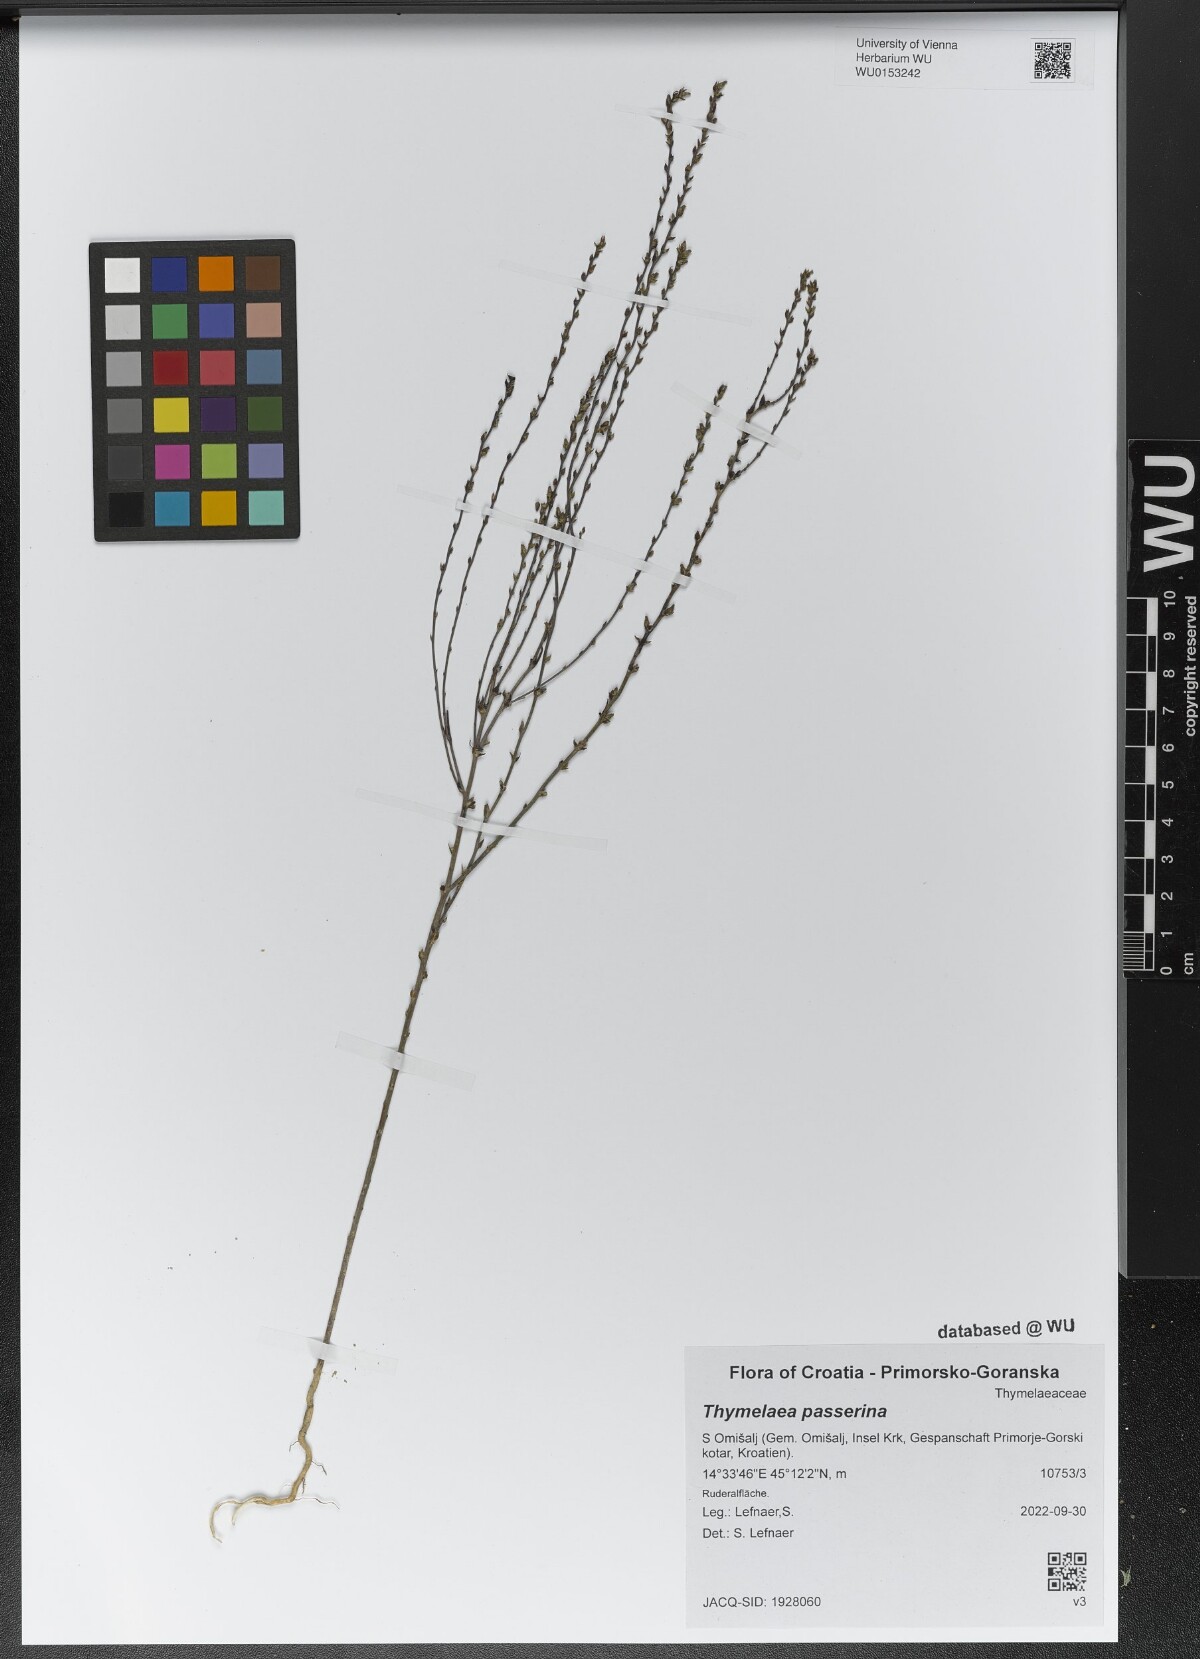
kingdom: Plantae
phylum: Tracheophyta
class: Magnoliopsida
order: Malvales
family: Thymelaeaceae
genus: Thymelaea
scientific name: Thymelaea passerina
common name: Annual thymelaea
